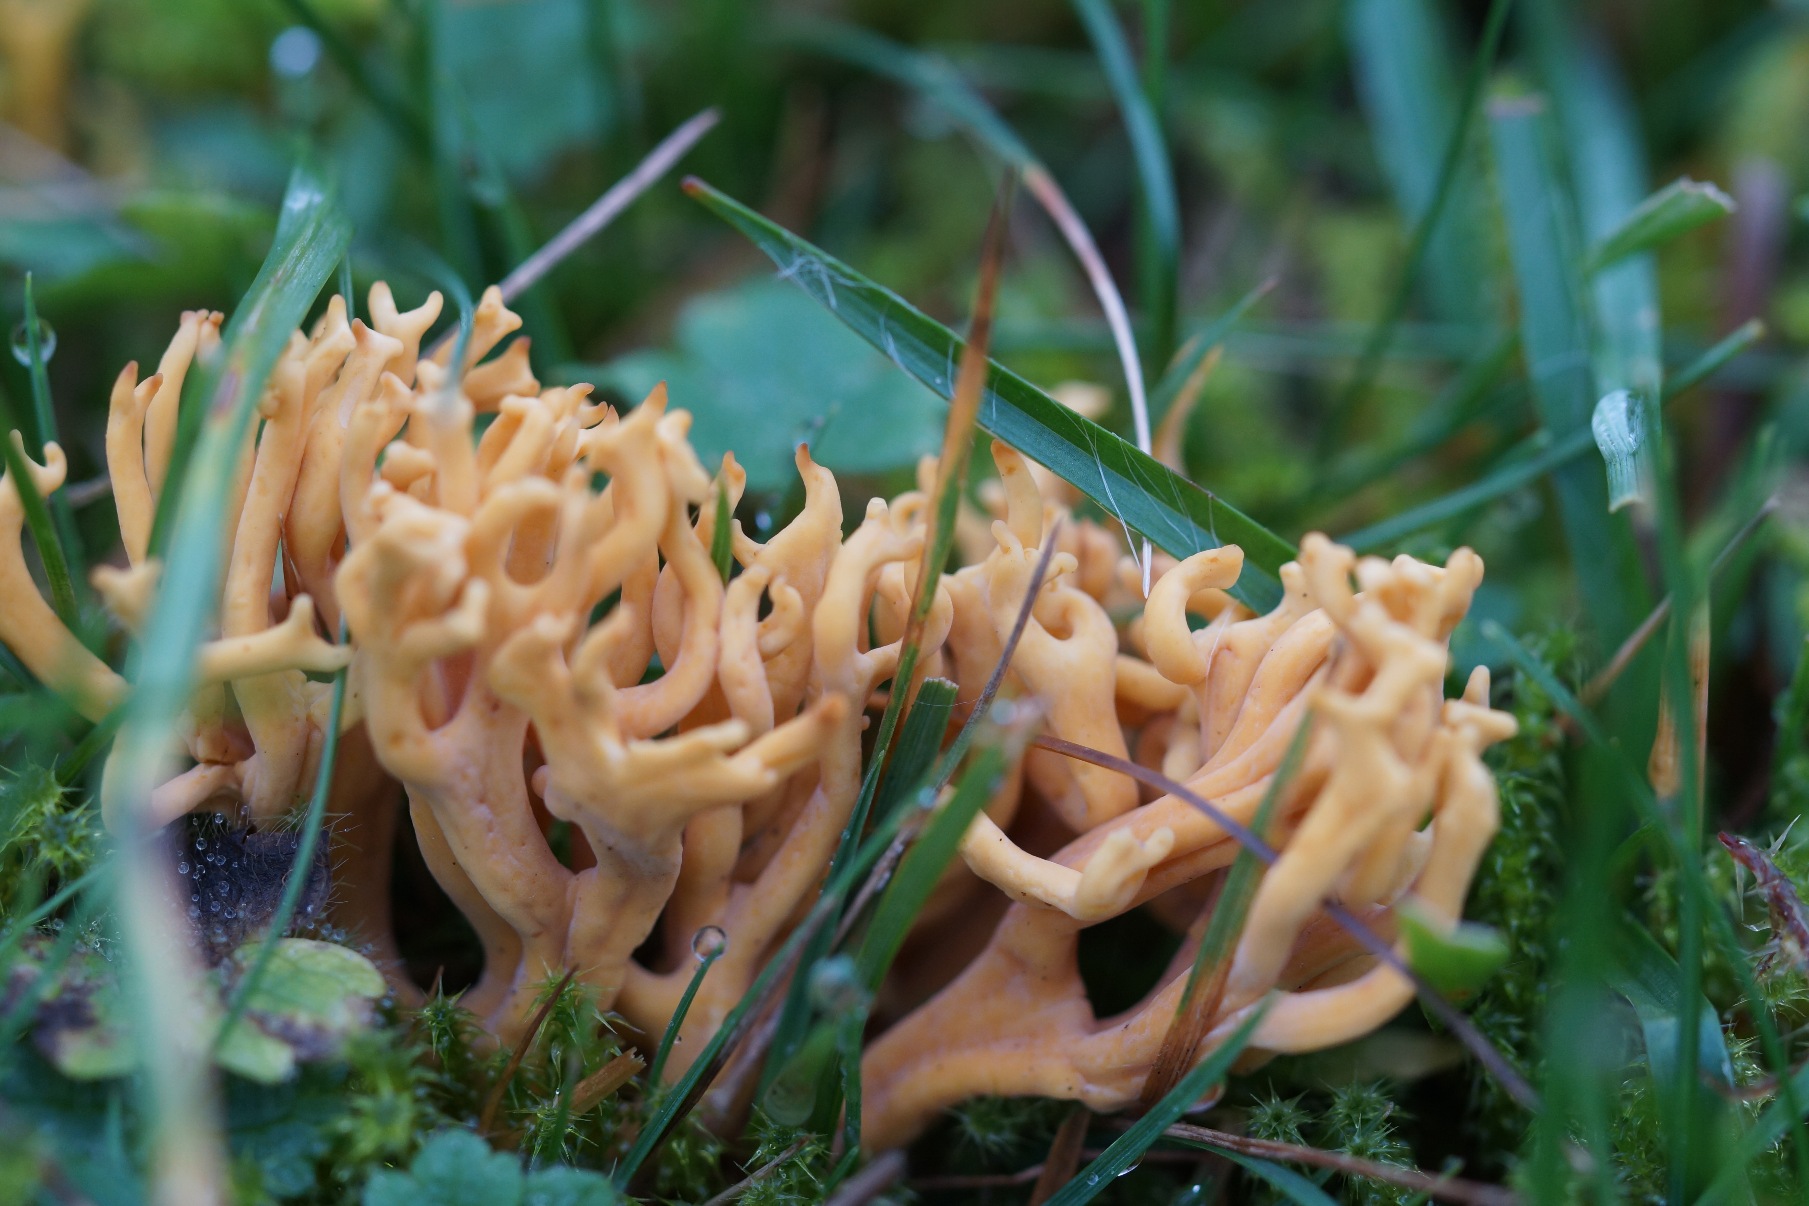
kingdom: Fungi
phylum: Basidiomycota
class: Agaricomycetes
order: Agaricales
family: Clavariaceae
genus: Clavulinopsis
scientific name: Clavulinopsis corniculata
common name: Eng-køllesvamp
